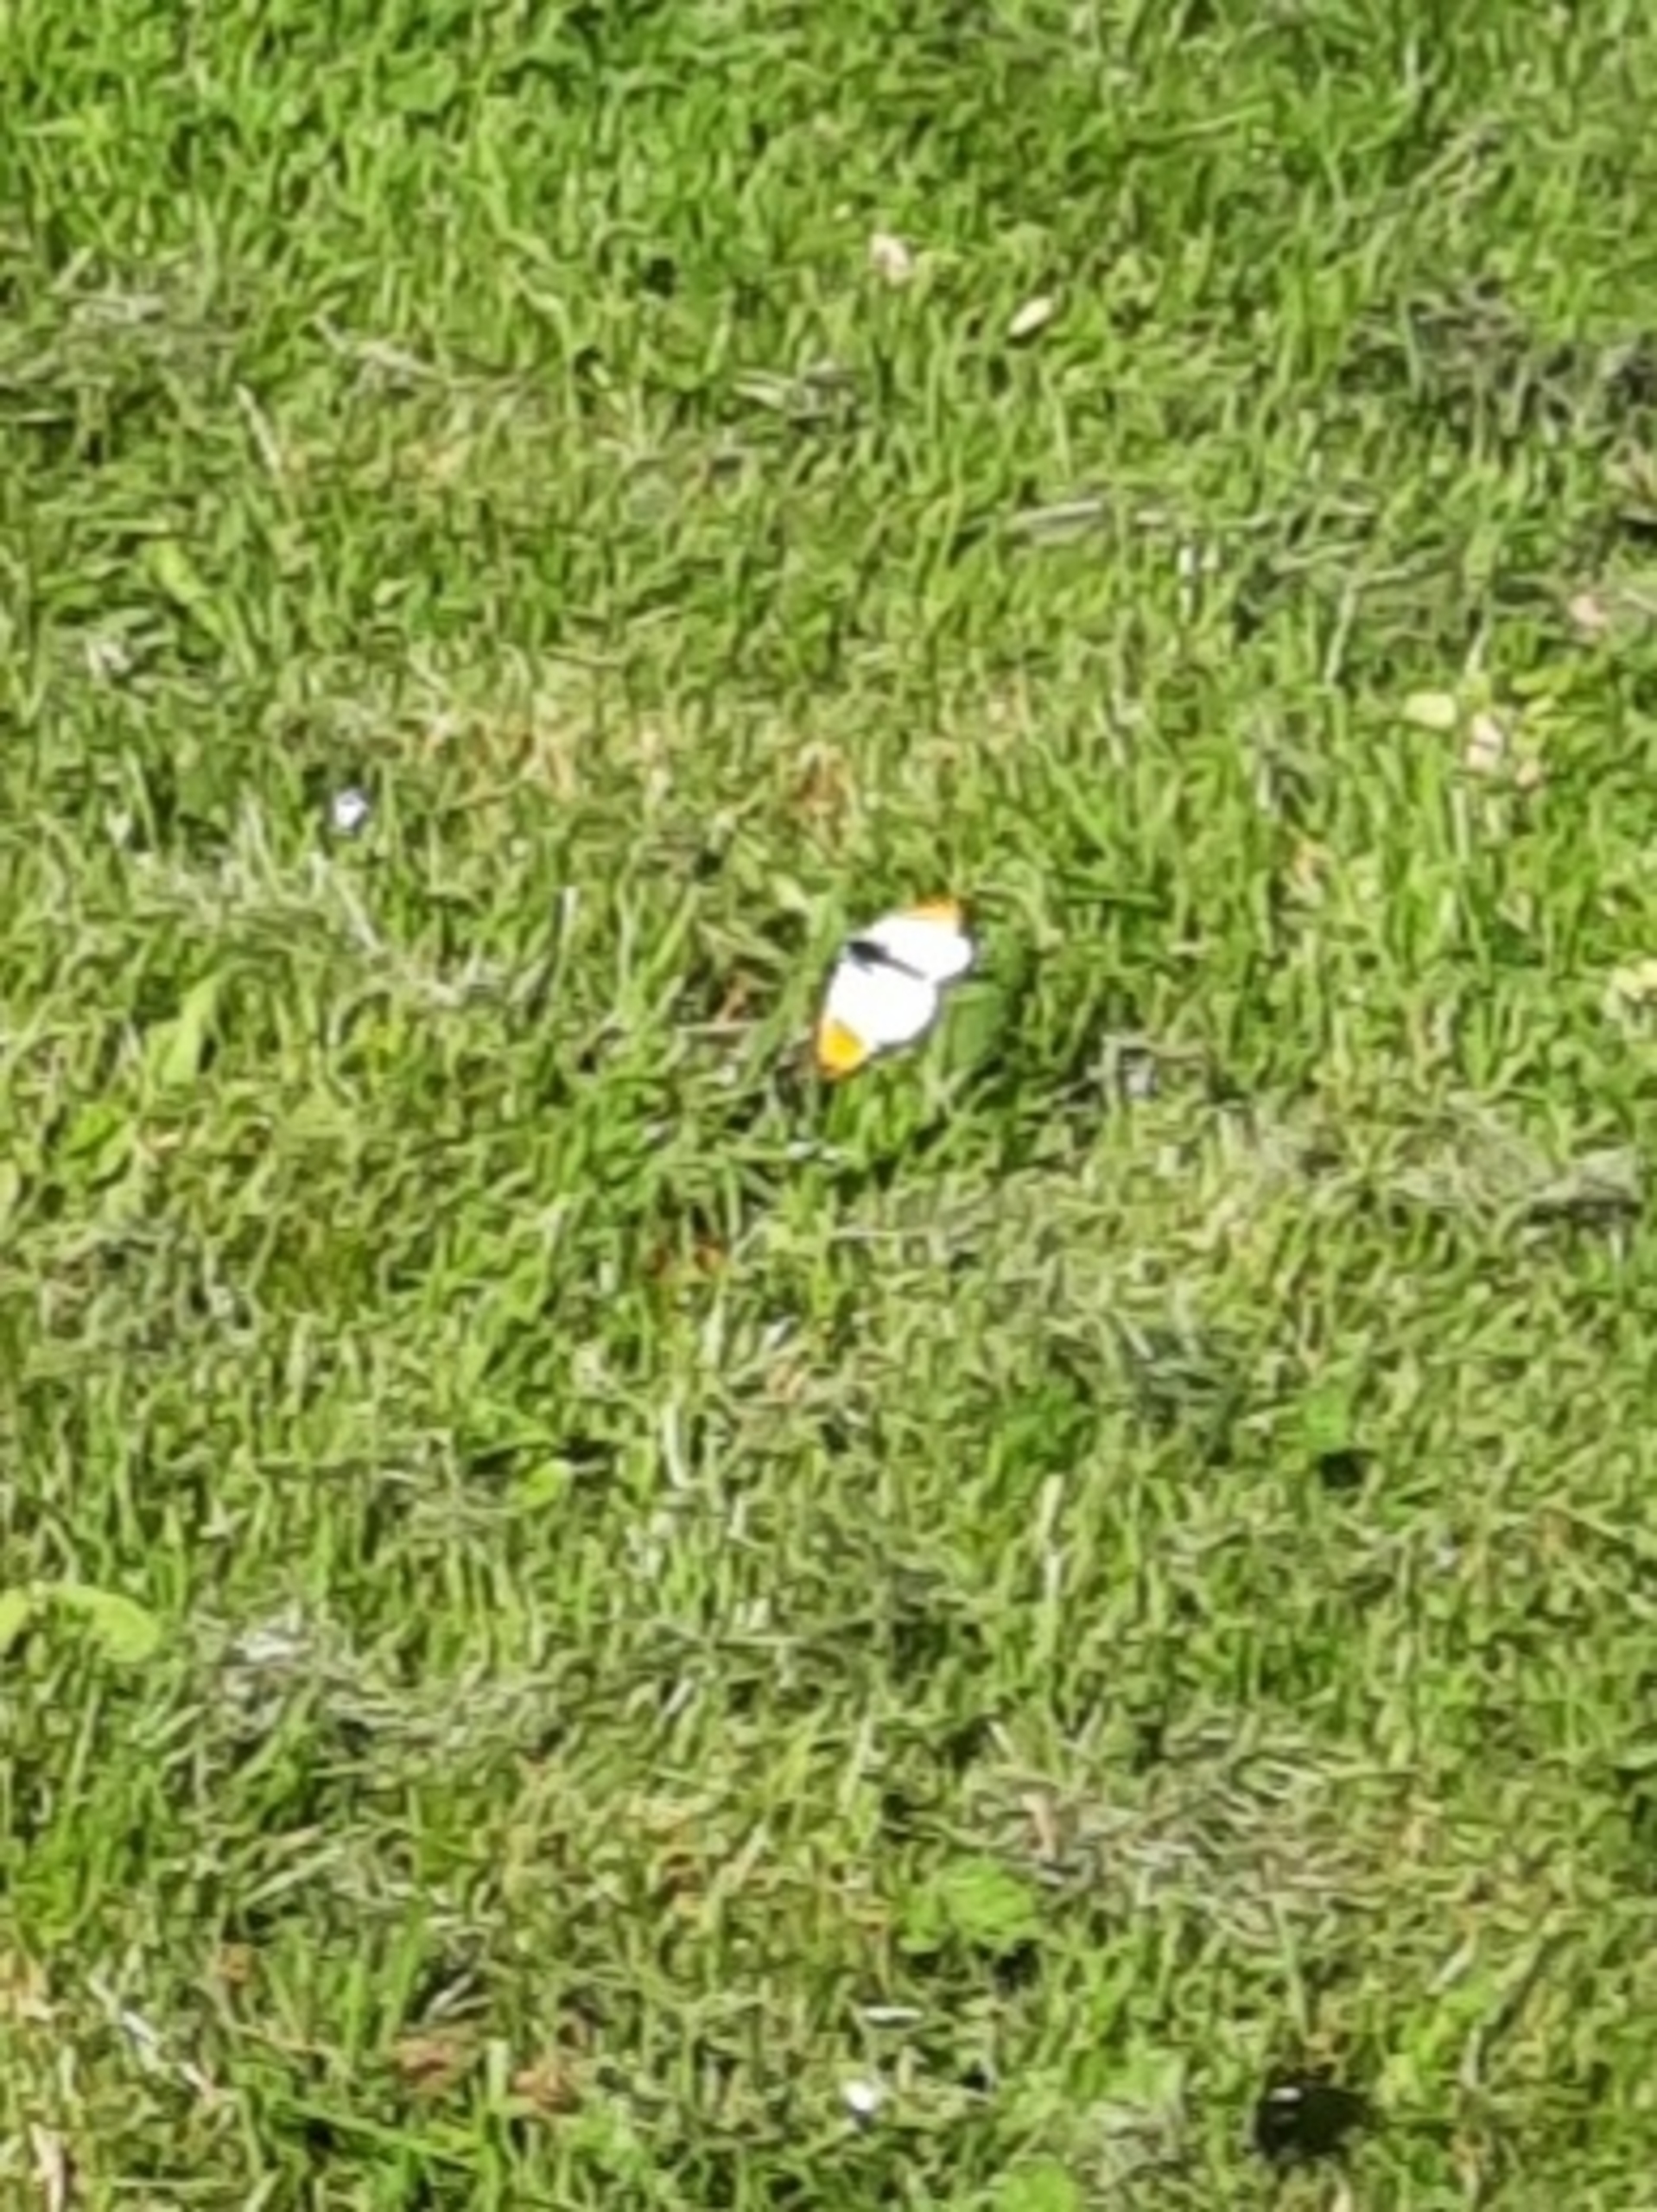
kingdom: Animalia
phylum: Arthropoda
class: Insecta
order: Lepidoptera
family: Pieridae
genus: Anthocharis
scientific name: Anthocharis cardamines
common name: Aurora
